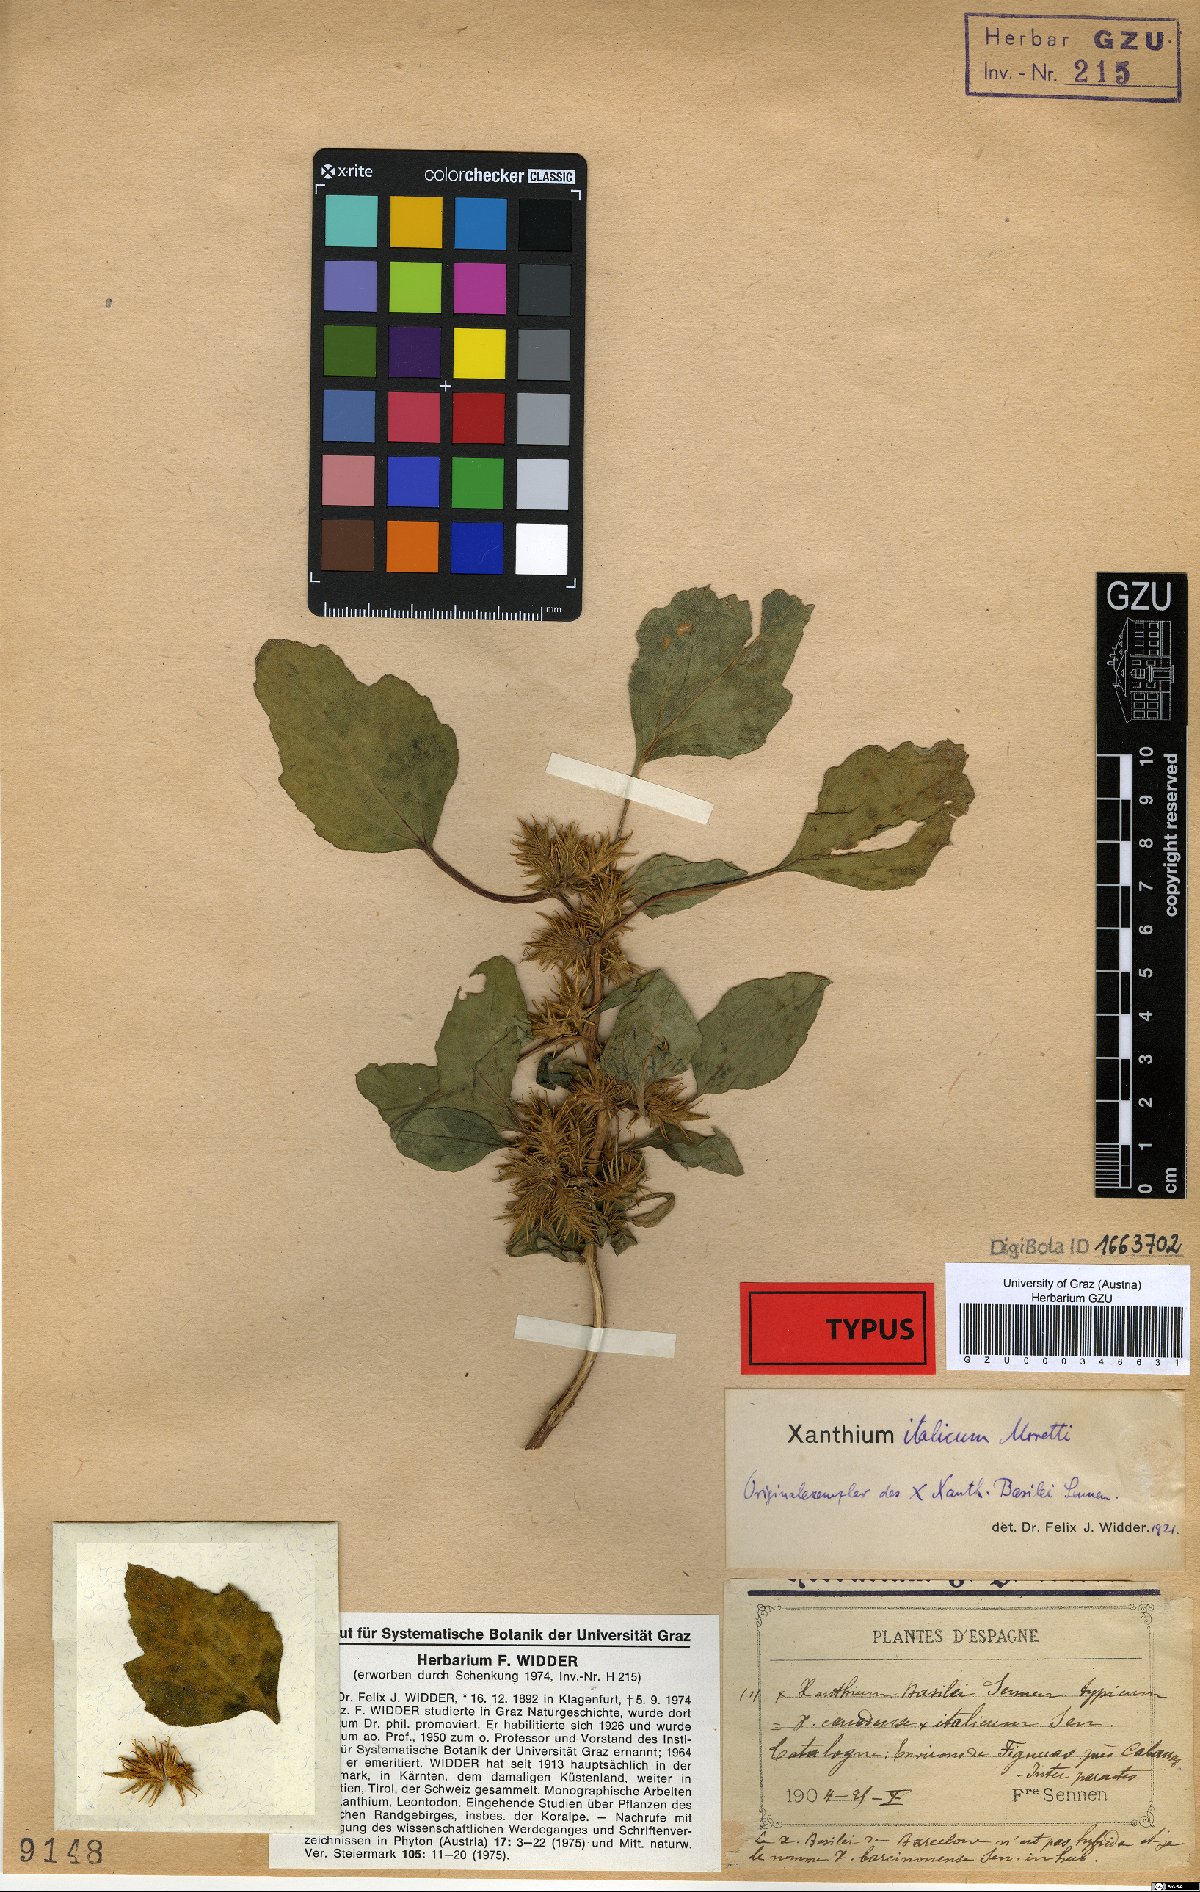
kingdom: Plantae
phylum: Tracheophyta
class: Magnoliopsida
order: Asterales
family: Asteraceae
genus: Xanthium
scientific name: Xanthium basilei
